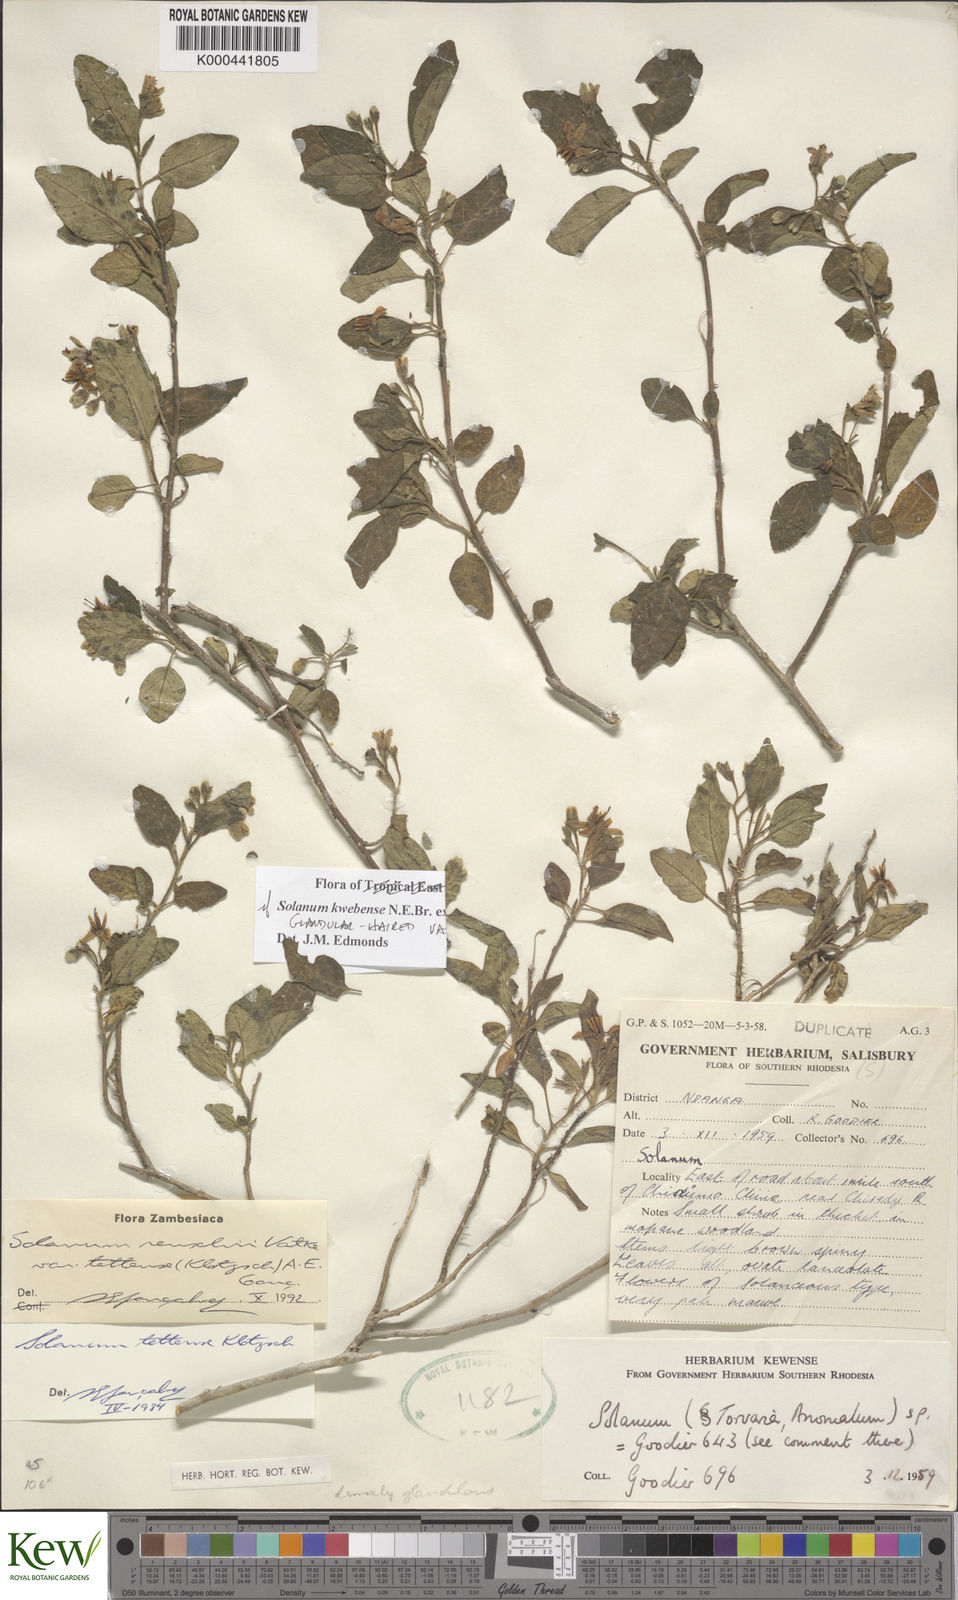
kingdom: Plantae
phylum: Tracheophyta
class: Magnoliopsida
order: Solanales
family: Solanaceae
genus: Solanum
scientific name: Solanum tettense
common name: Mozambique bitter apple
